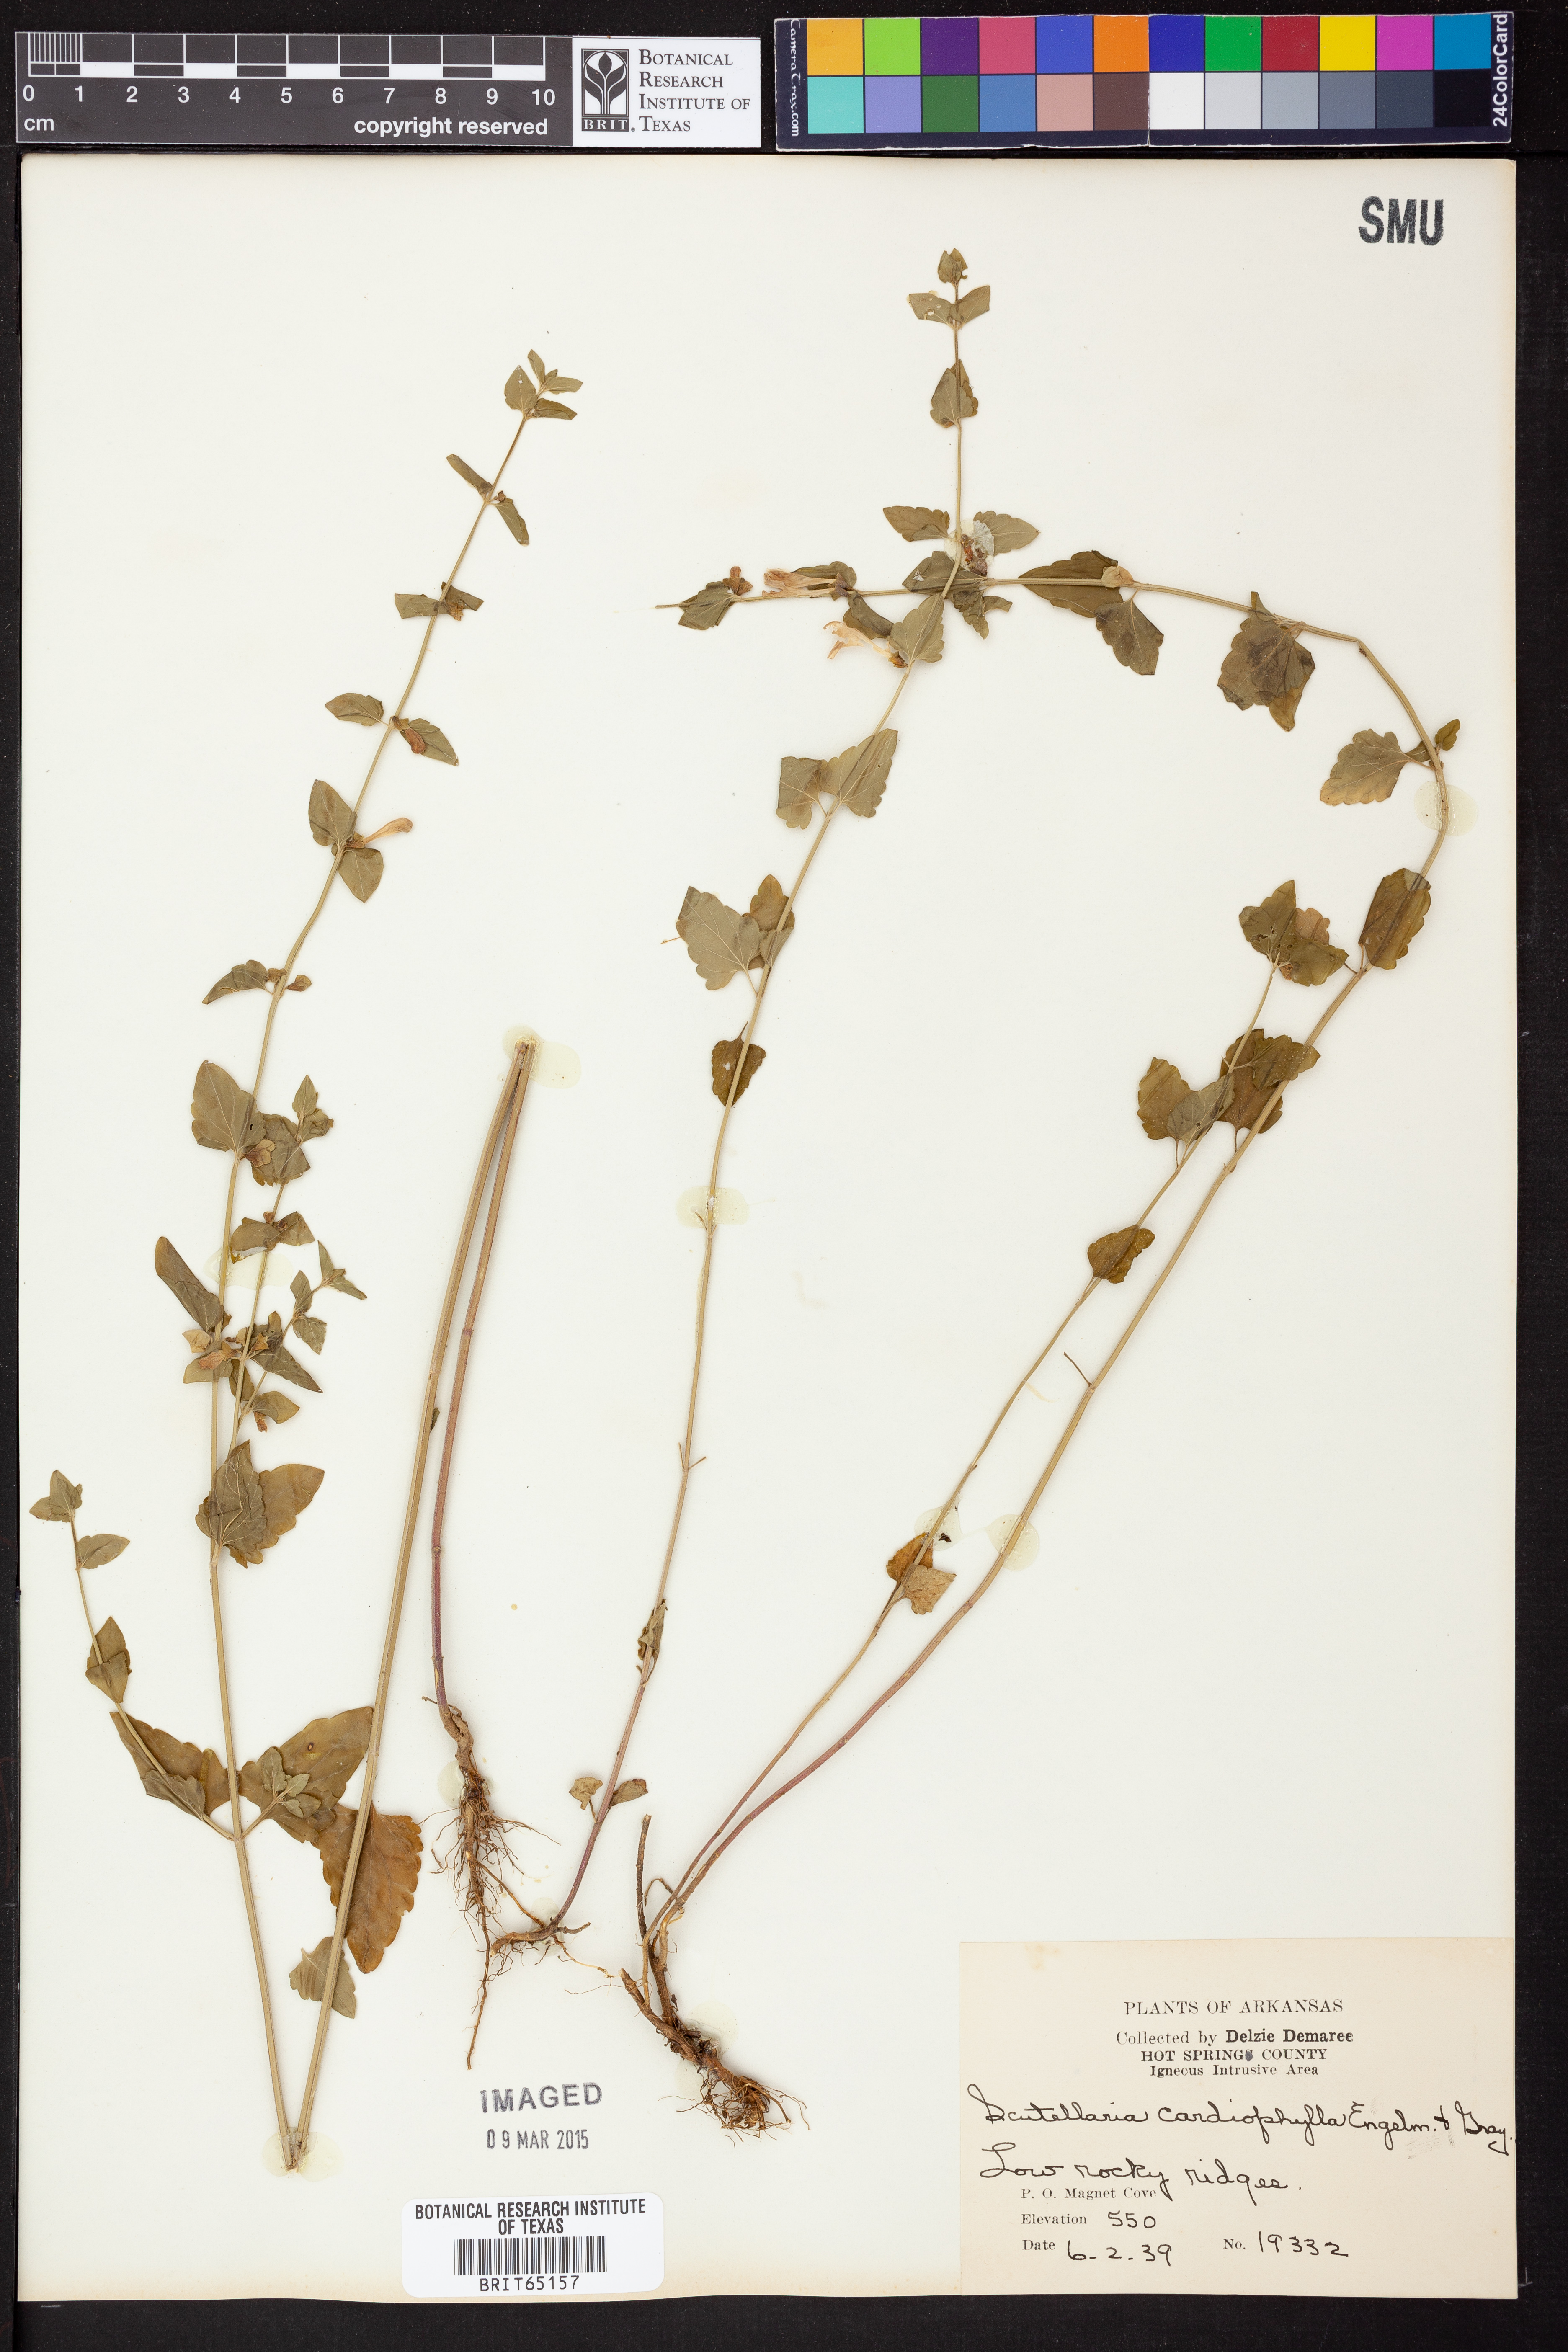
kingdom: Plantae
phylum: Tracheophyta
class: Magnoliopsida
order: Lamiales
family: Lamiaceae
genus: Scutellaria
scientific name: Scutellaria
